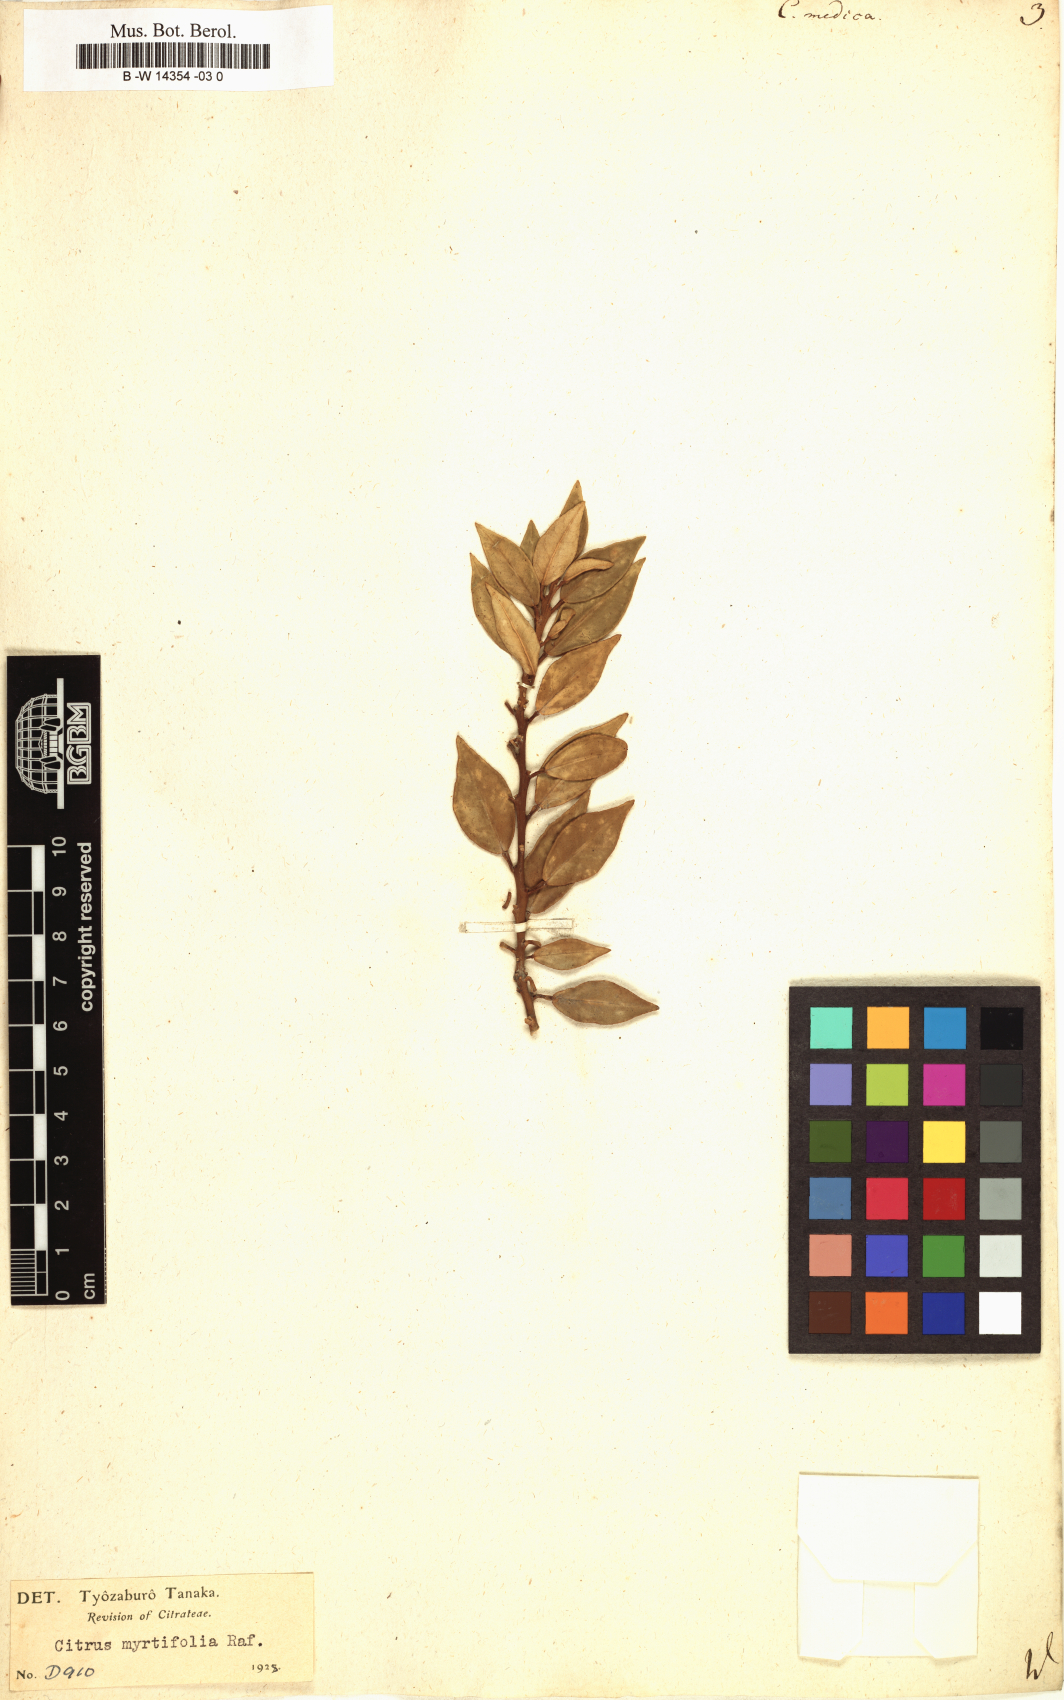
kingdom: Plantae
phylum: Tracheophyta
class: Magnoliopsida
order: Sapindales
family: Rutaceae
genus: Citrus
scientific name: Citrus medica
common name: Citron
